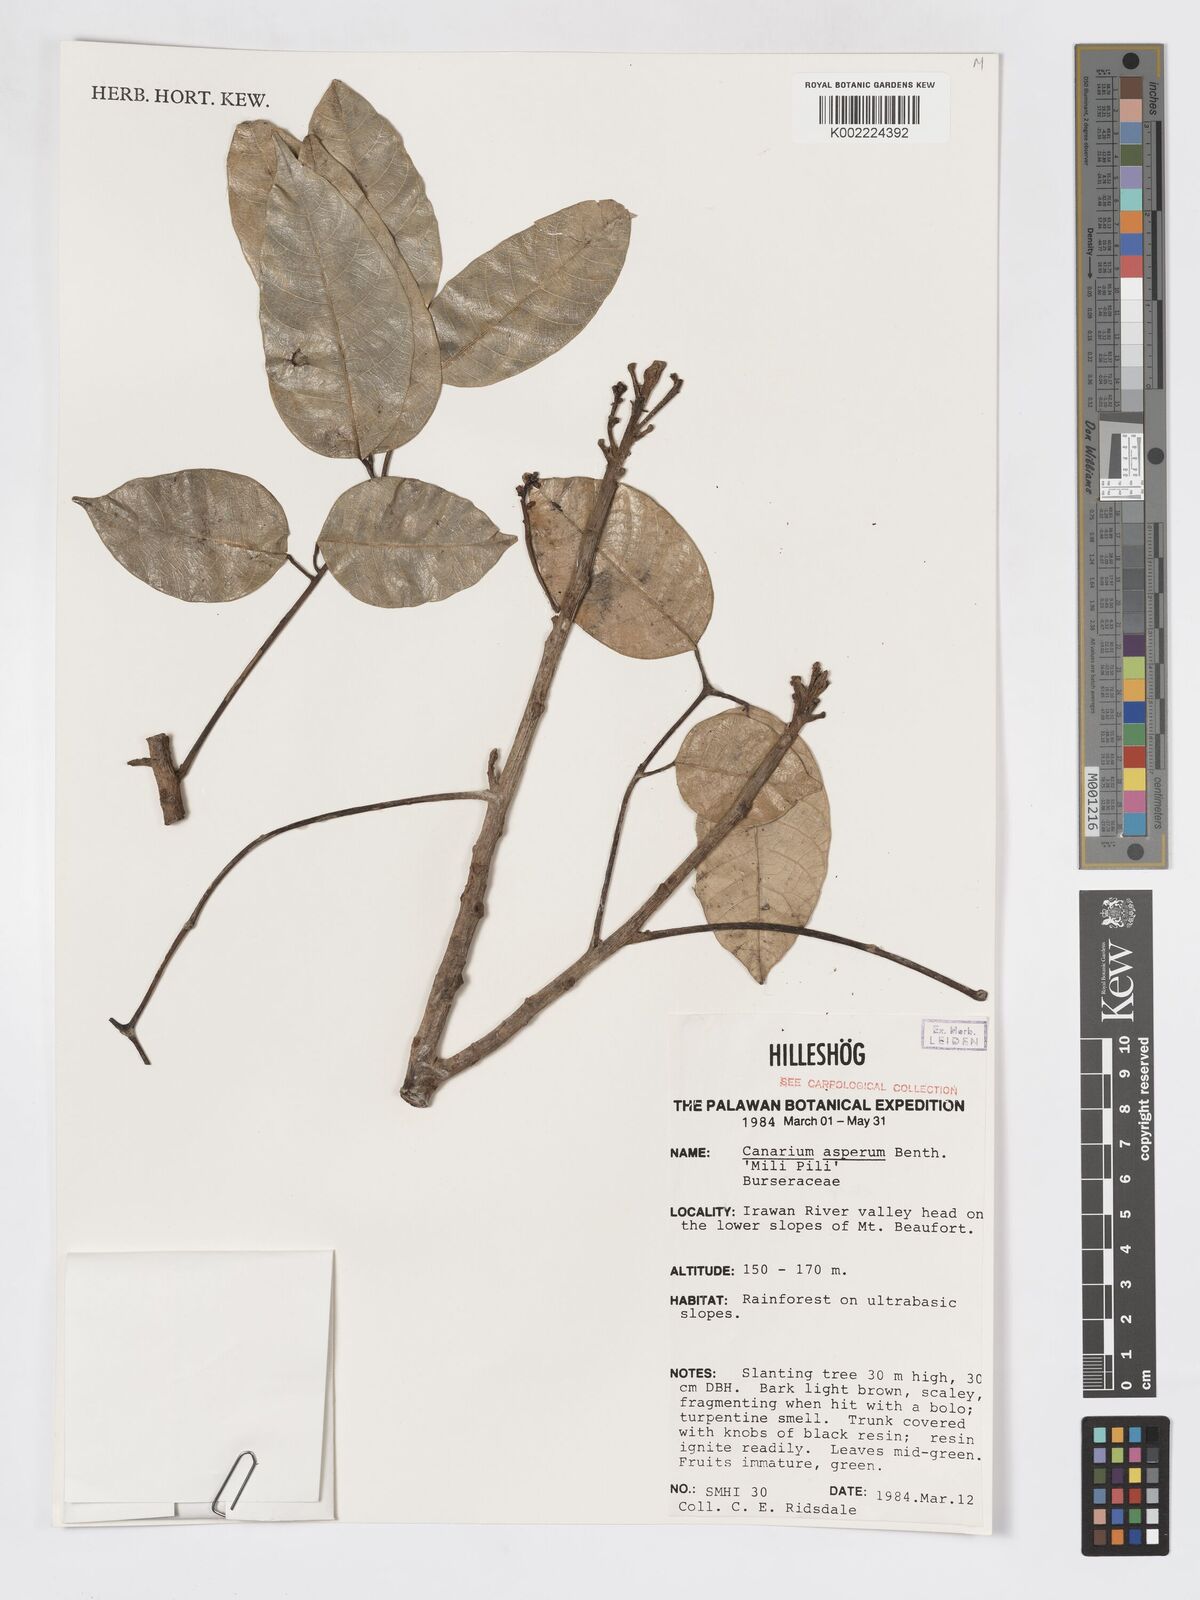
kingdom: Plantae
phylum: Tracheophyta
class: Magnoliopsida
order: Sapindales
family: Burseraceae
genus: Canarium
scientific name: Canarium asperum
